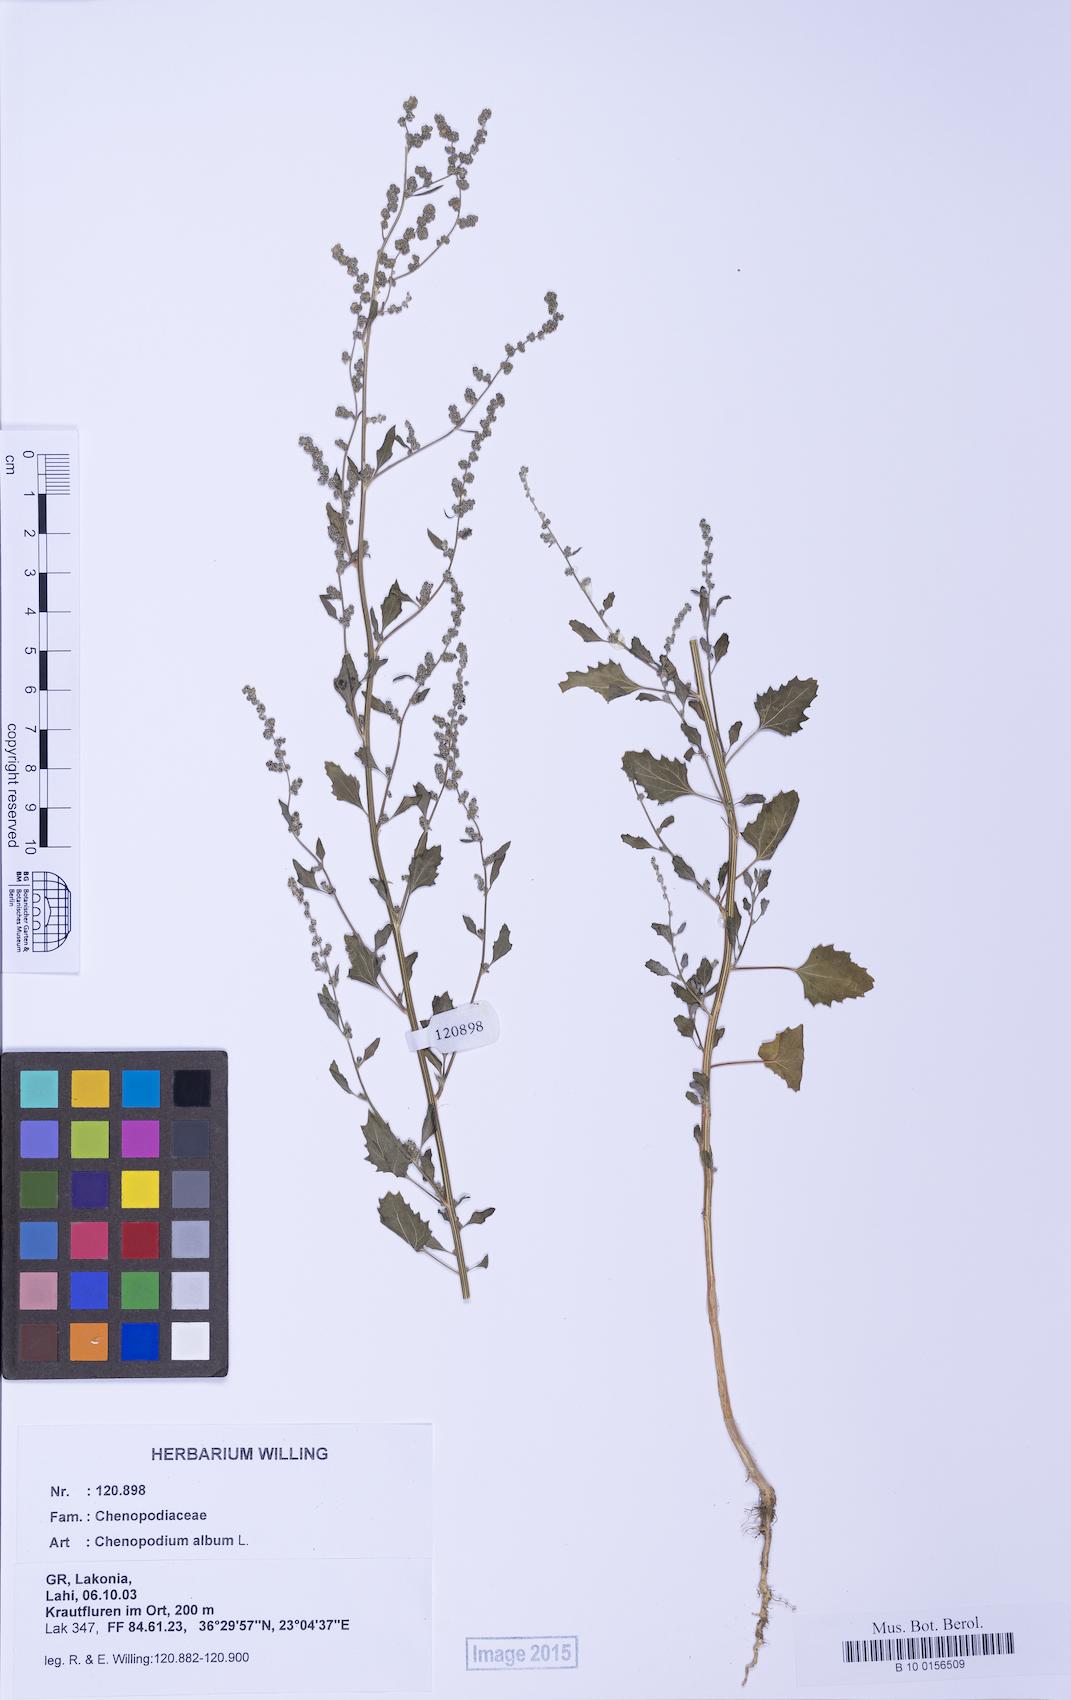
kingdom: Plantae
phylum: Tracheophyta
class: Magnoliopsida
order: Caryophyllales
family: Amaranthaceae
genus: Chenopodium
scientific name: Chenopodium album
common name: Fat-hen
